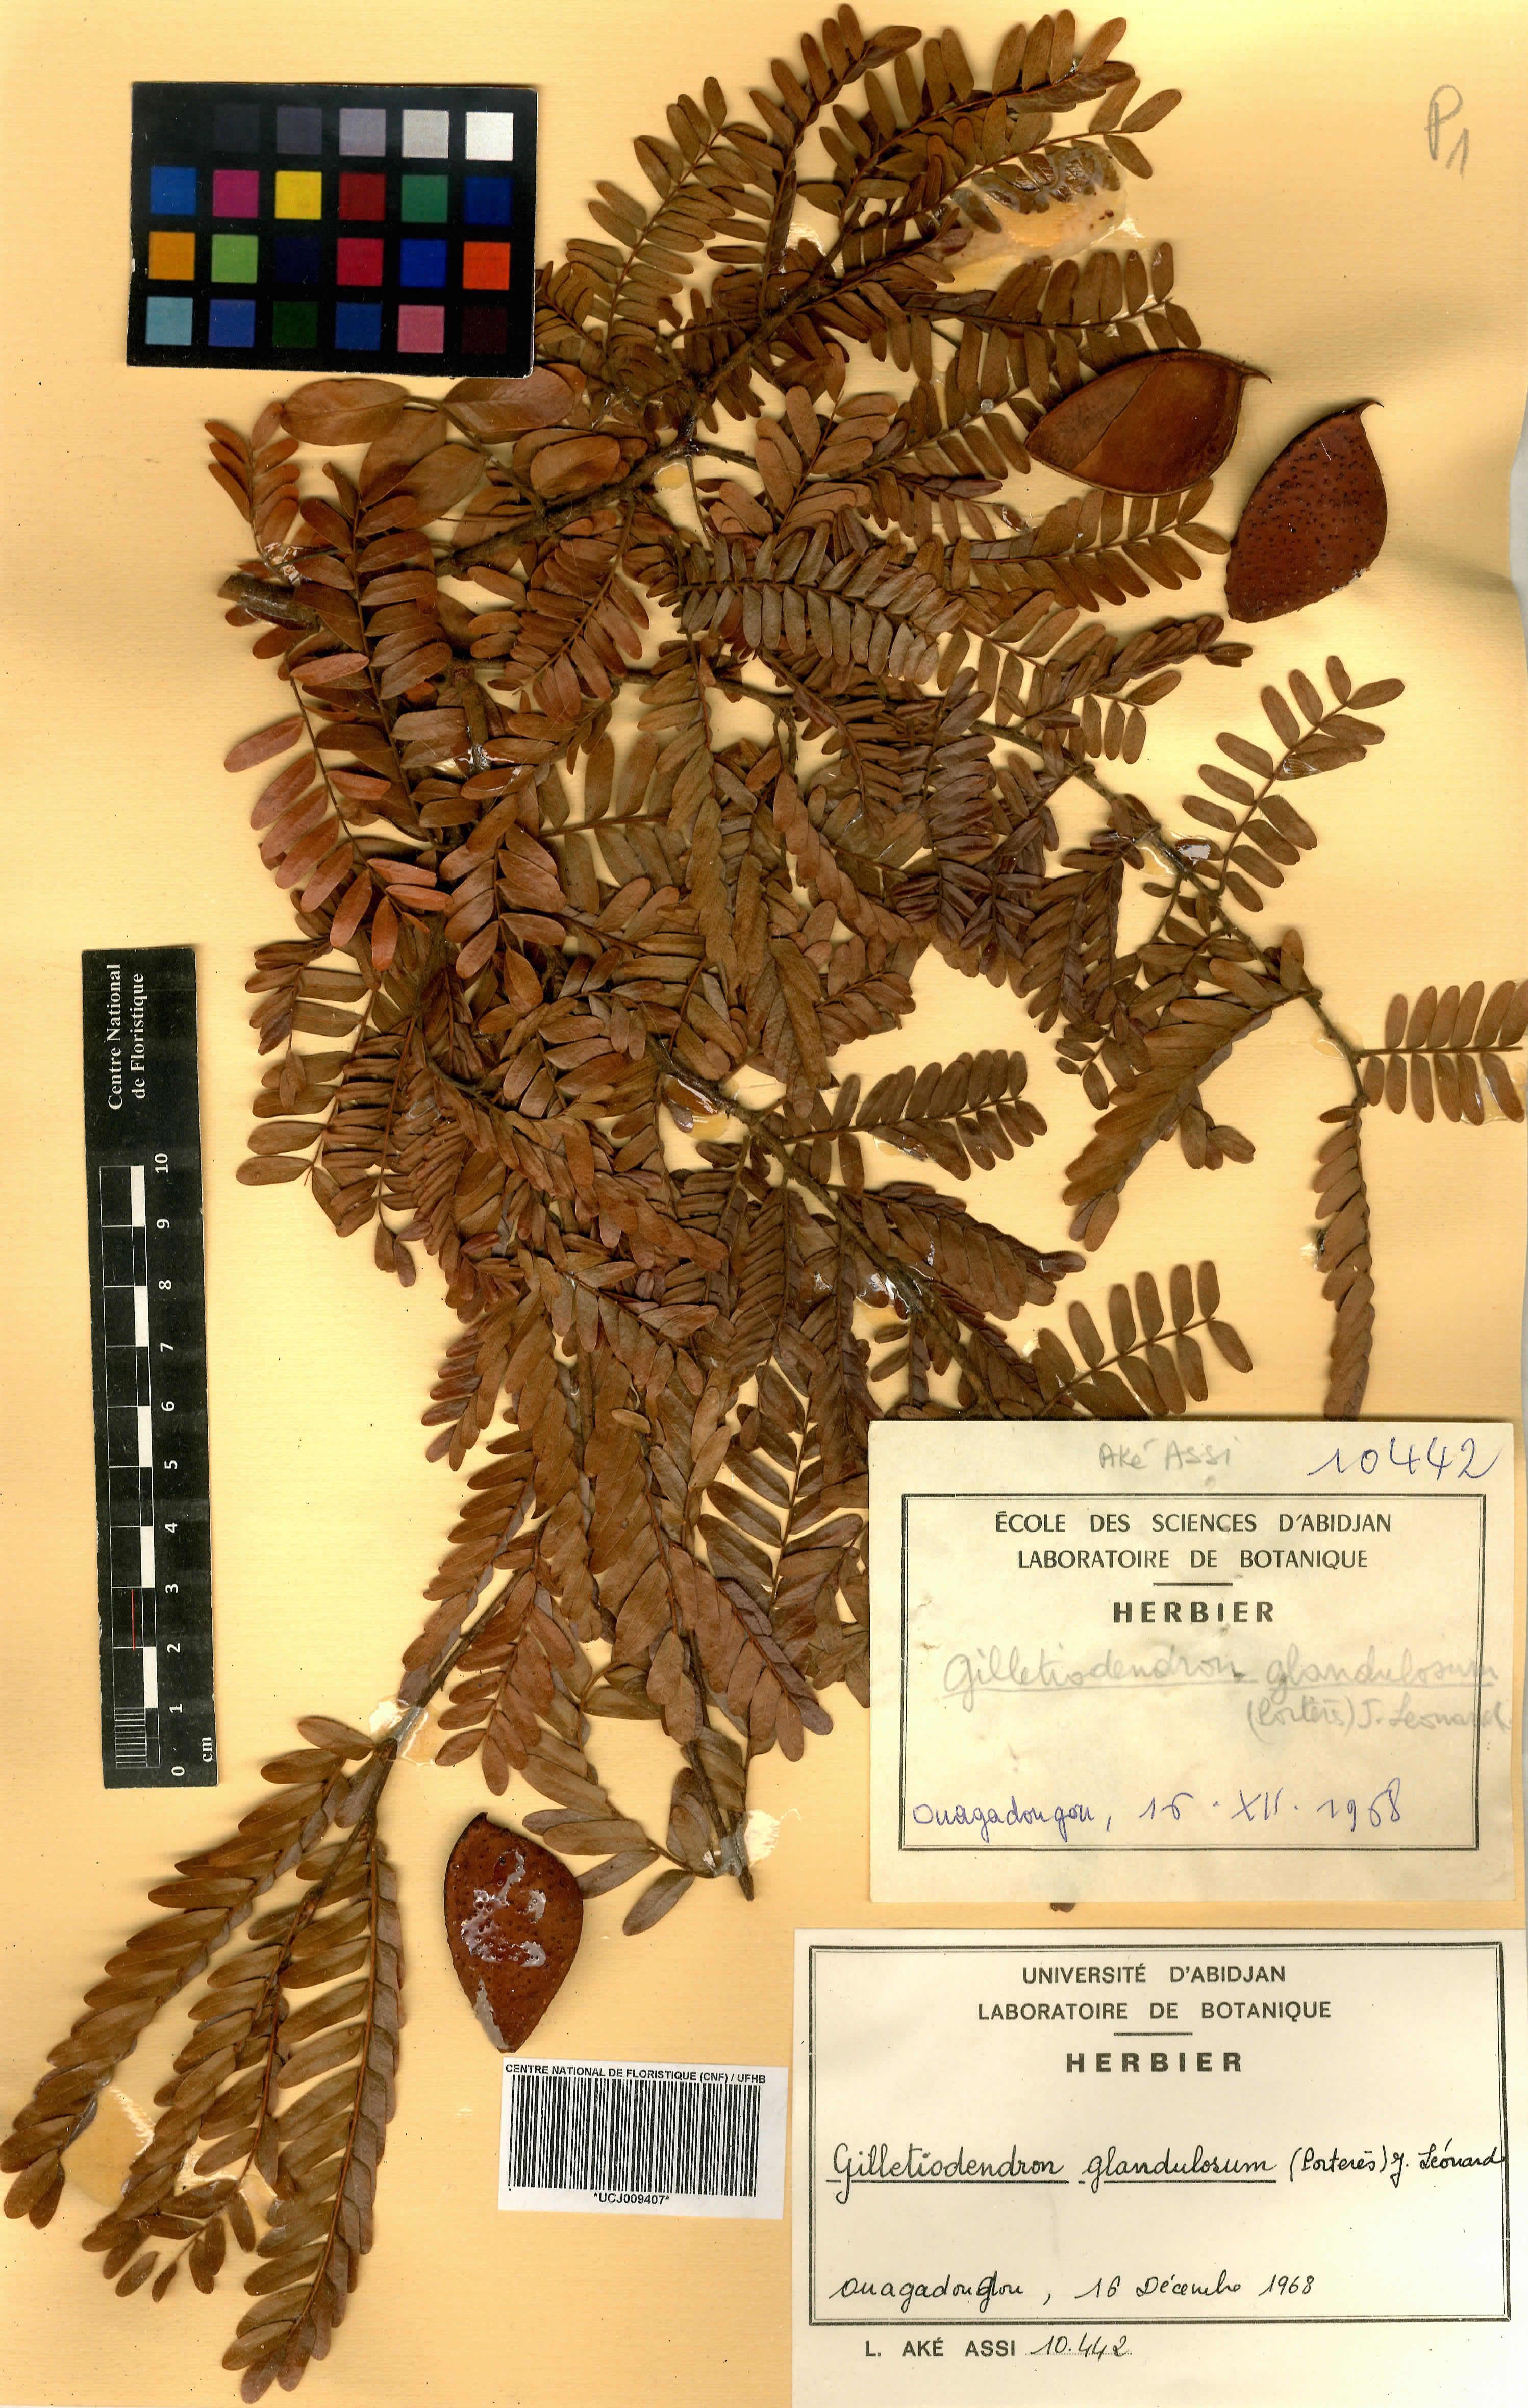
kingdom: Plantae
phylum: Tracheophyta
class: Magnoliopsida
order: Fabales
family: Fabaceae
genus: Gilletiodendron
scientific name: Gilletiodendron glandulosum
